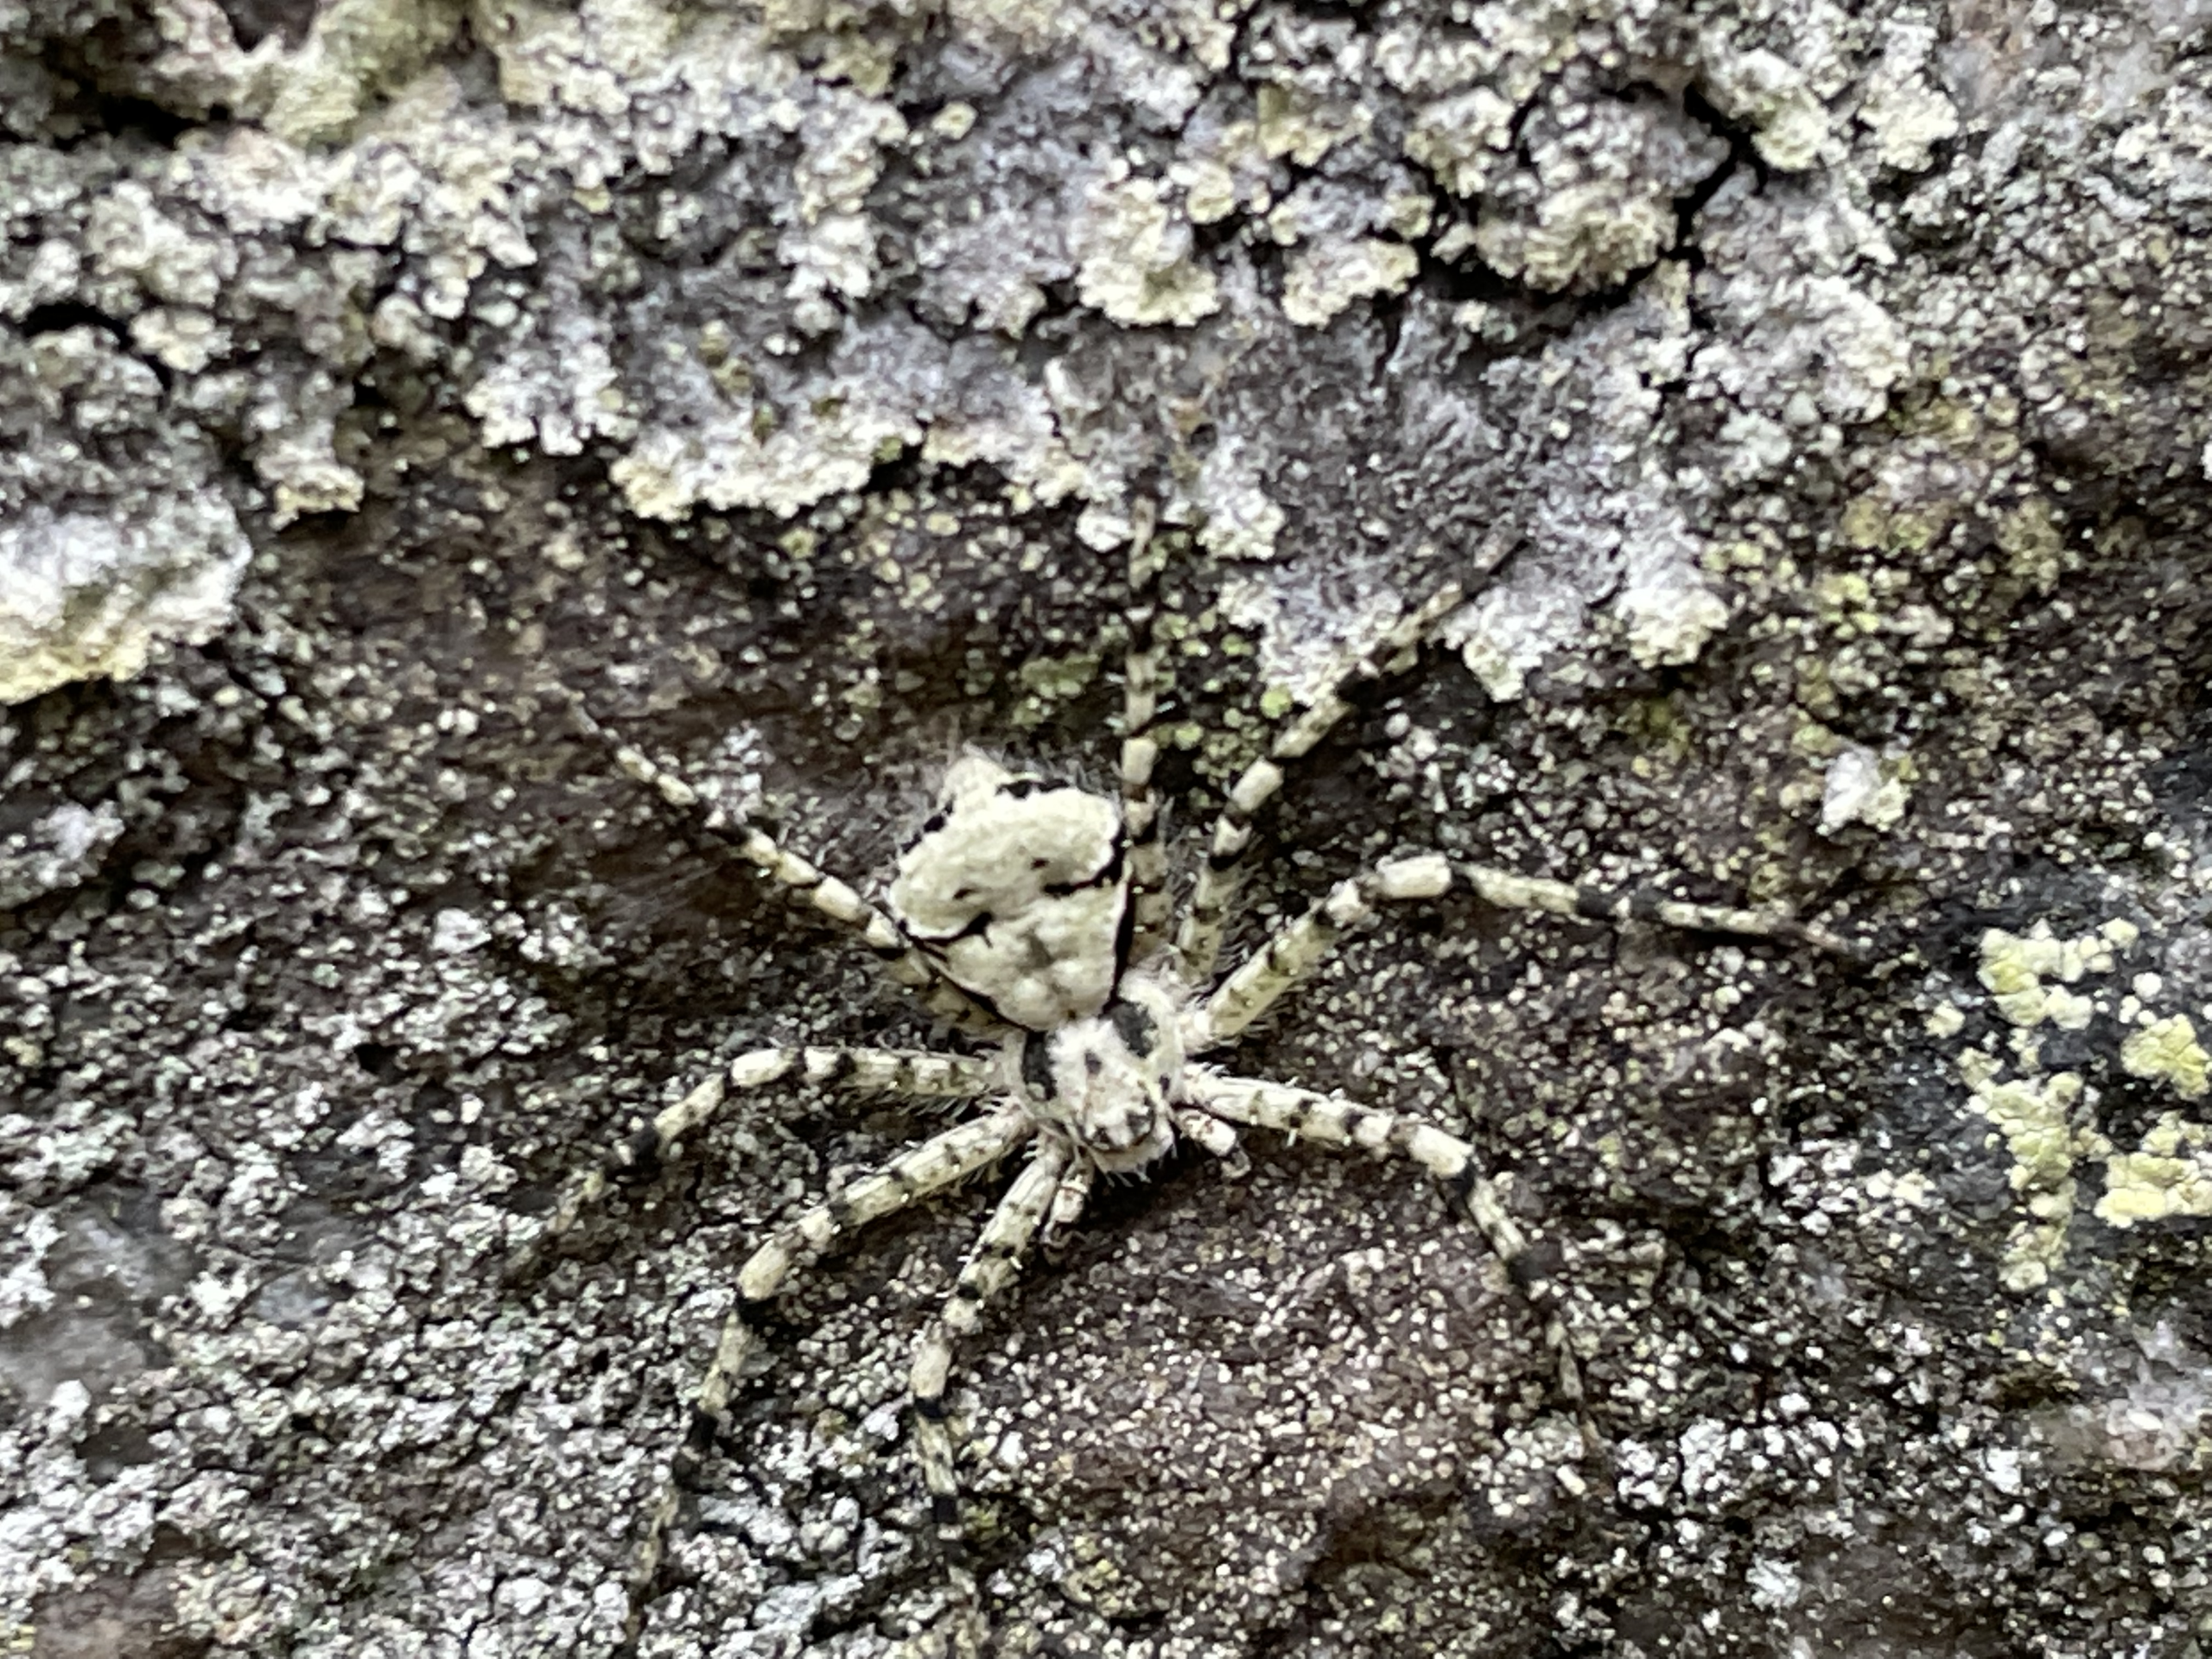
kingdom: Animalia
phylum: Arthropoda
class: Arachnida
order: Araneae
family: Philodromidae
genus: Philodromus
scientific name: Philodromus margaritatus
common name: Dødningehoved-edderkop
